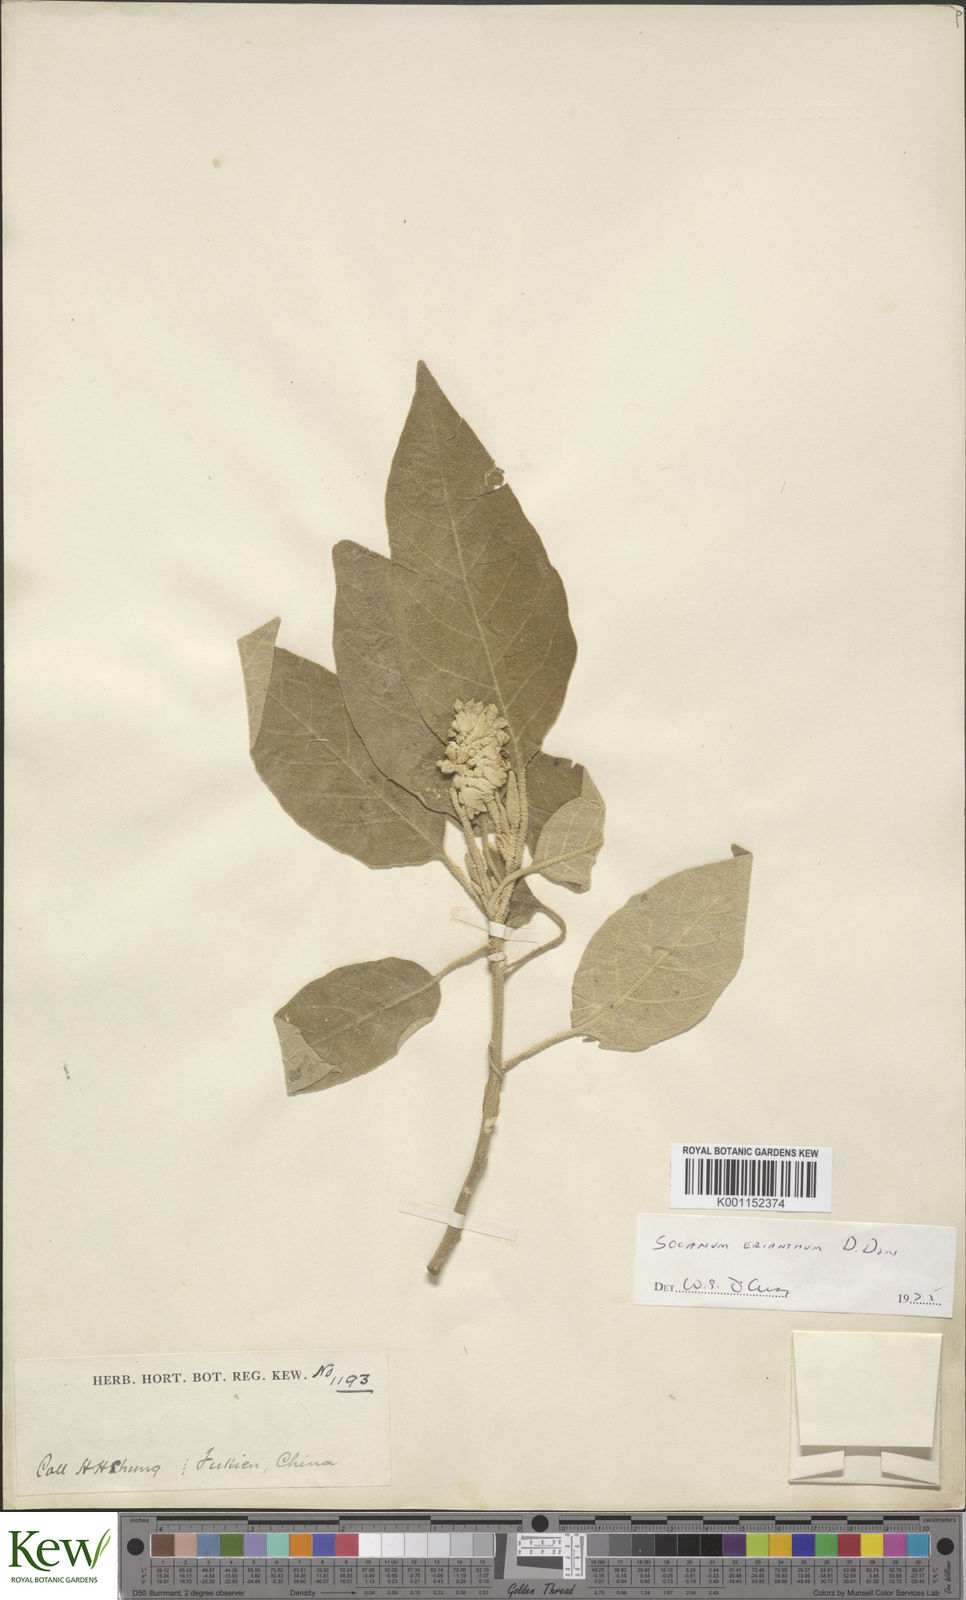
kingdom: Plantae
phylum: Tracheophyta
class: Magnoliopsida
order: Solanales
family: Solanaceae
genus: Solanum
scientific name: Solanum erianthum
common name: Tobacco-tree
